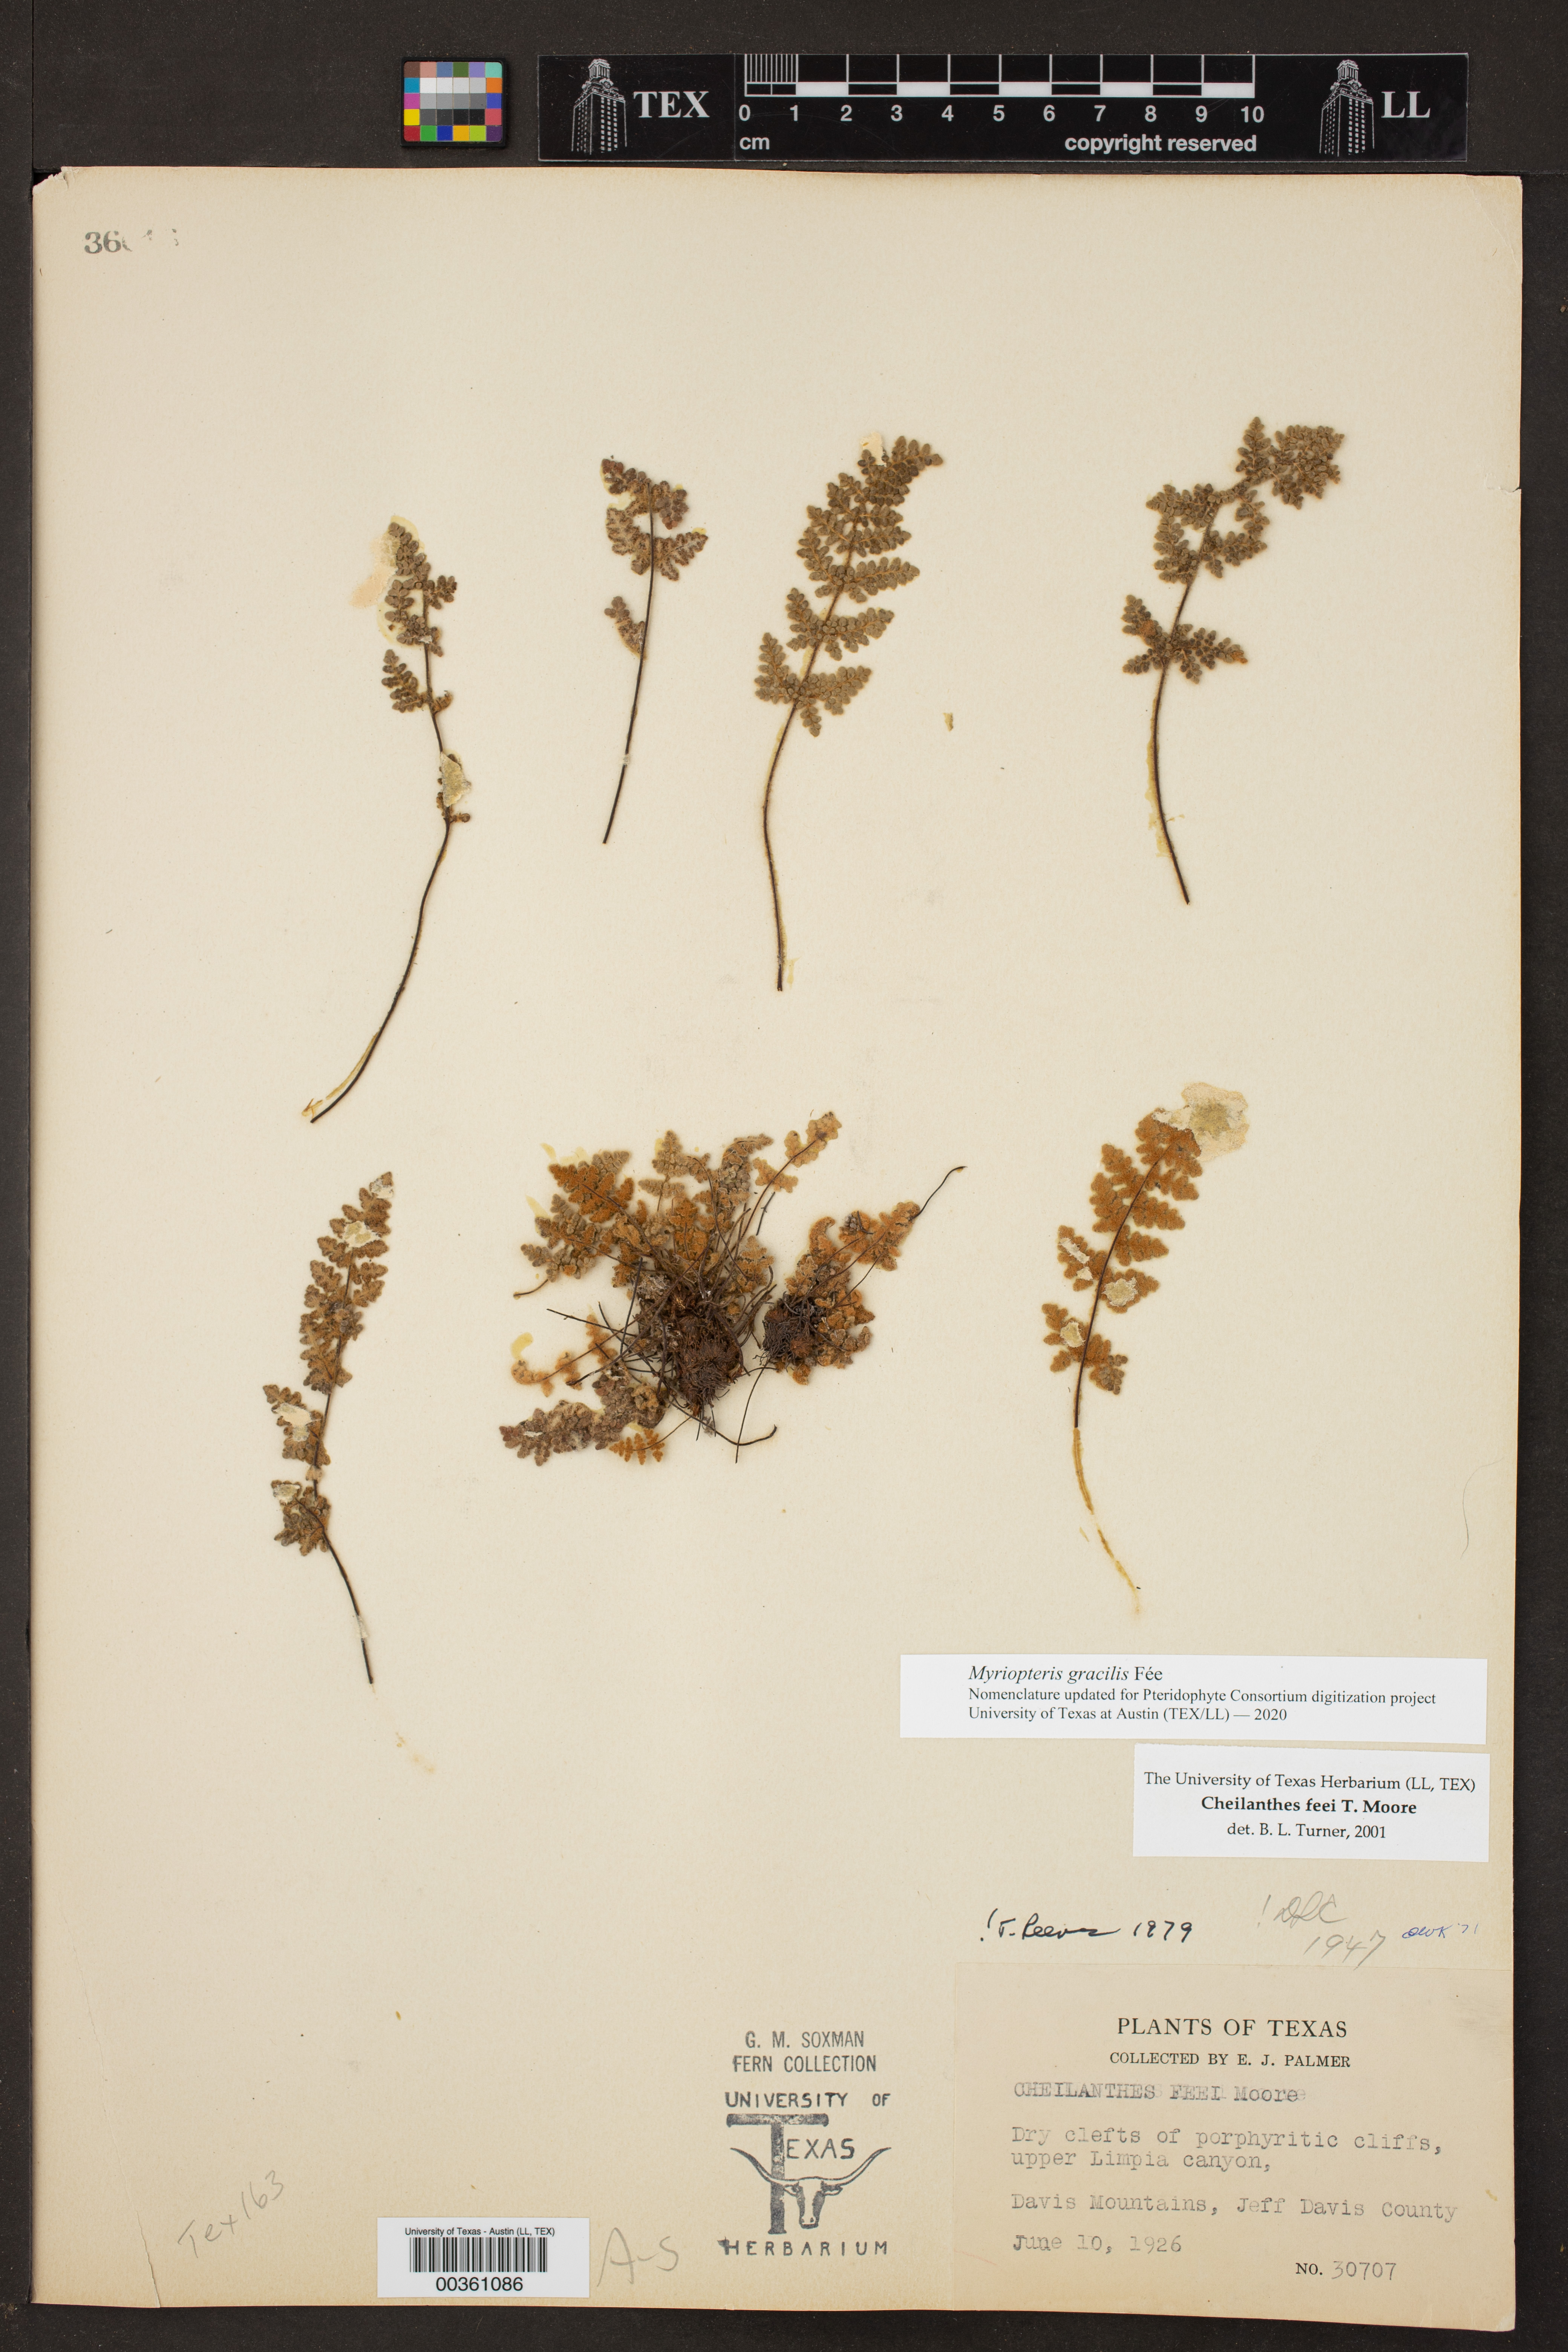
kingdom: Plantae
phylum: Tracheophyta
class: Polypodiopsida
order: Polypodiales
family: Pteridaceae
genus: Myriopteris
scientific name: Myriopteris gracilis
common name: Fee's lip fern
